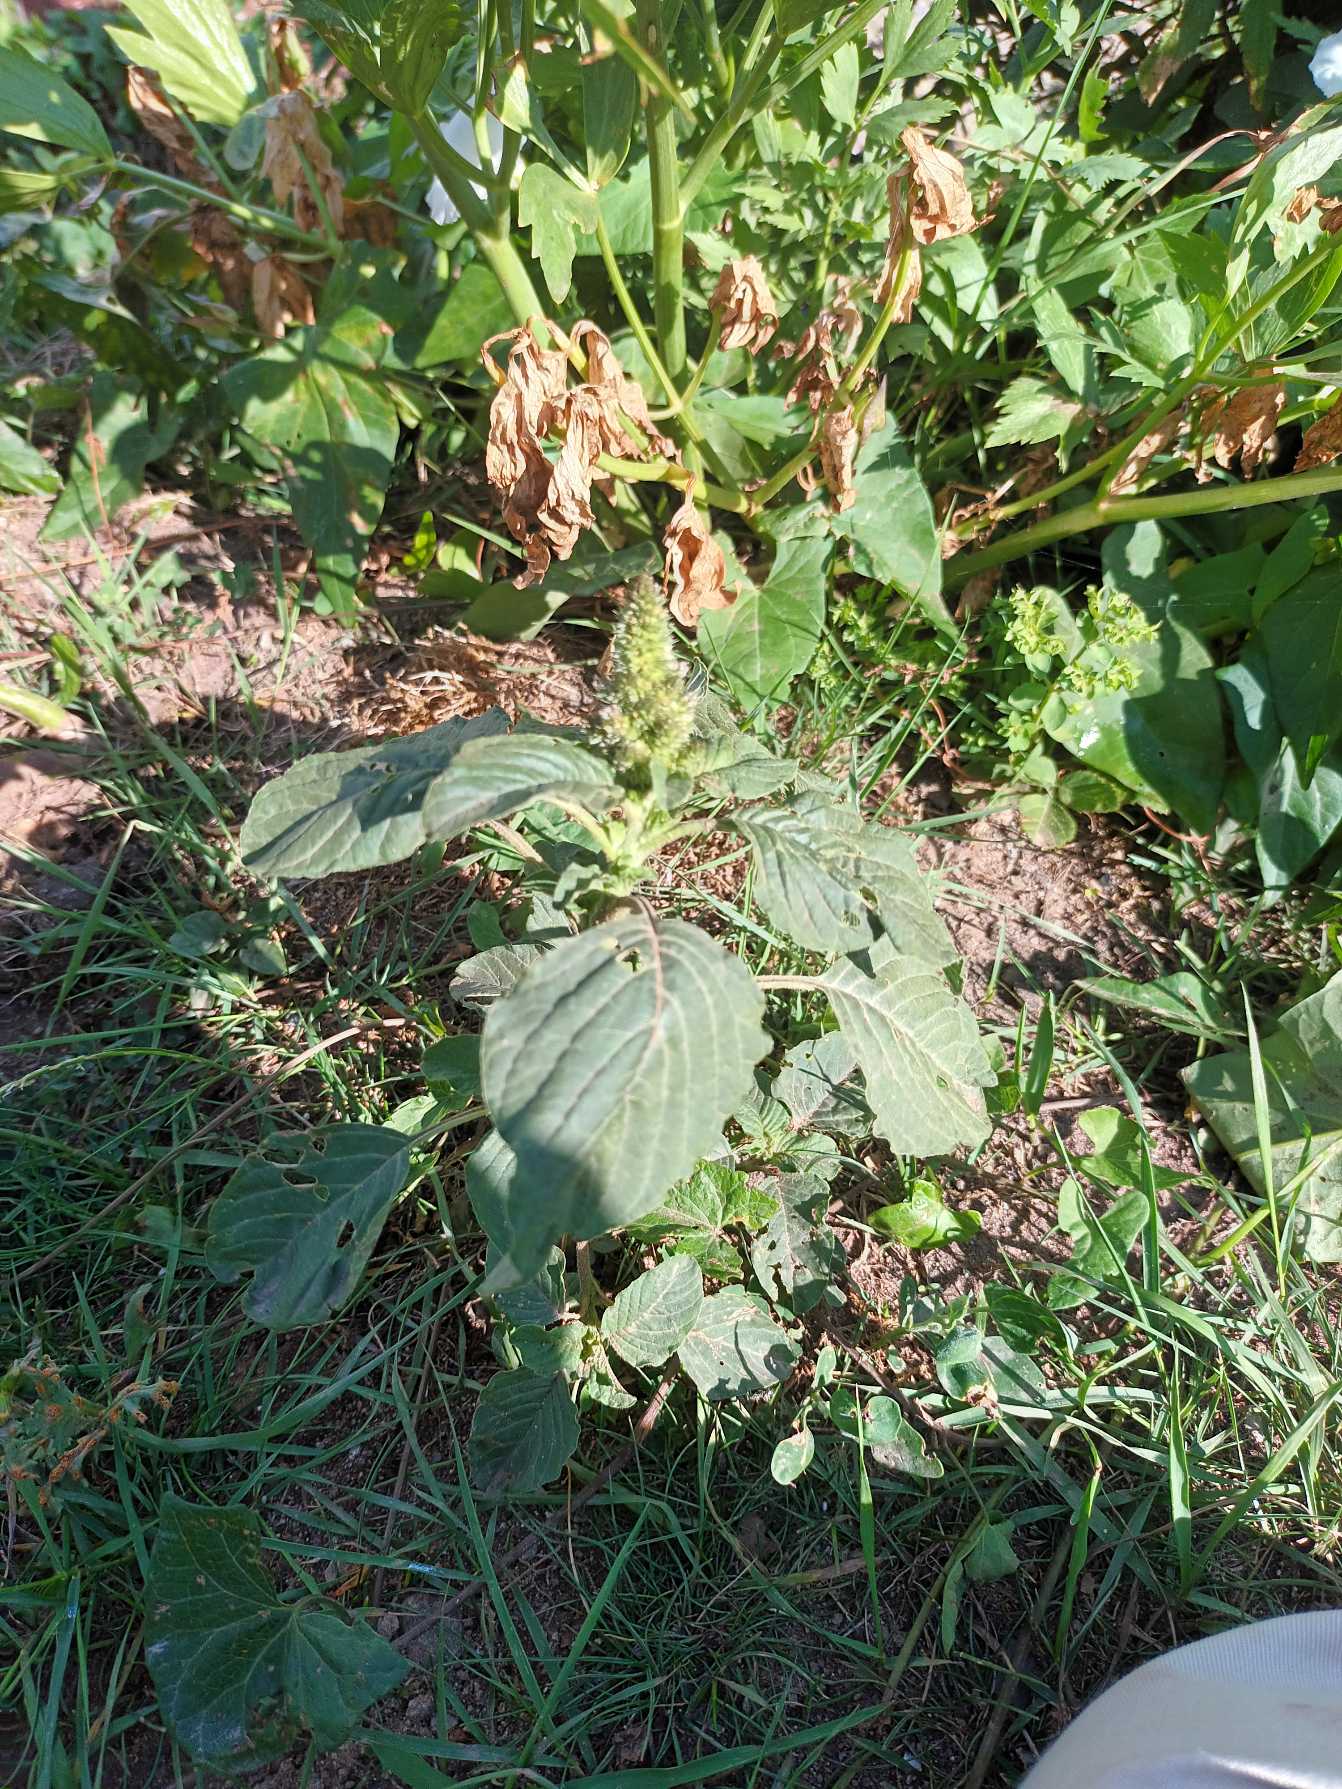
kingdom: Plantae
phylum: Tracheophyta
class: Magnoliopsida
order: Caryophyllales
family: Amaranthaceae
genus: Amaranthus
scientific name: Amaranthus retroflexus
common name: Opret amarant
